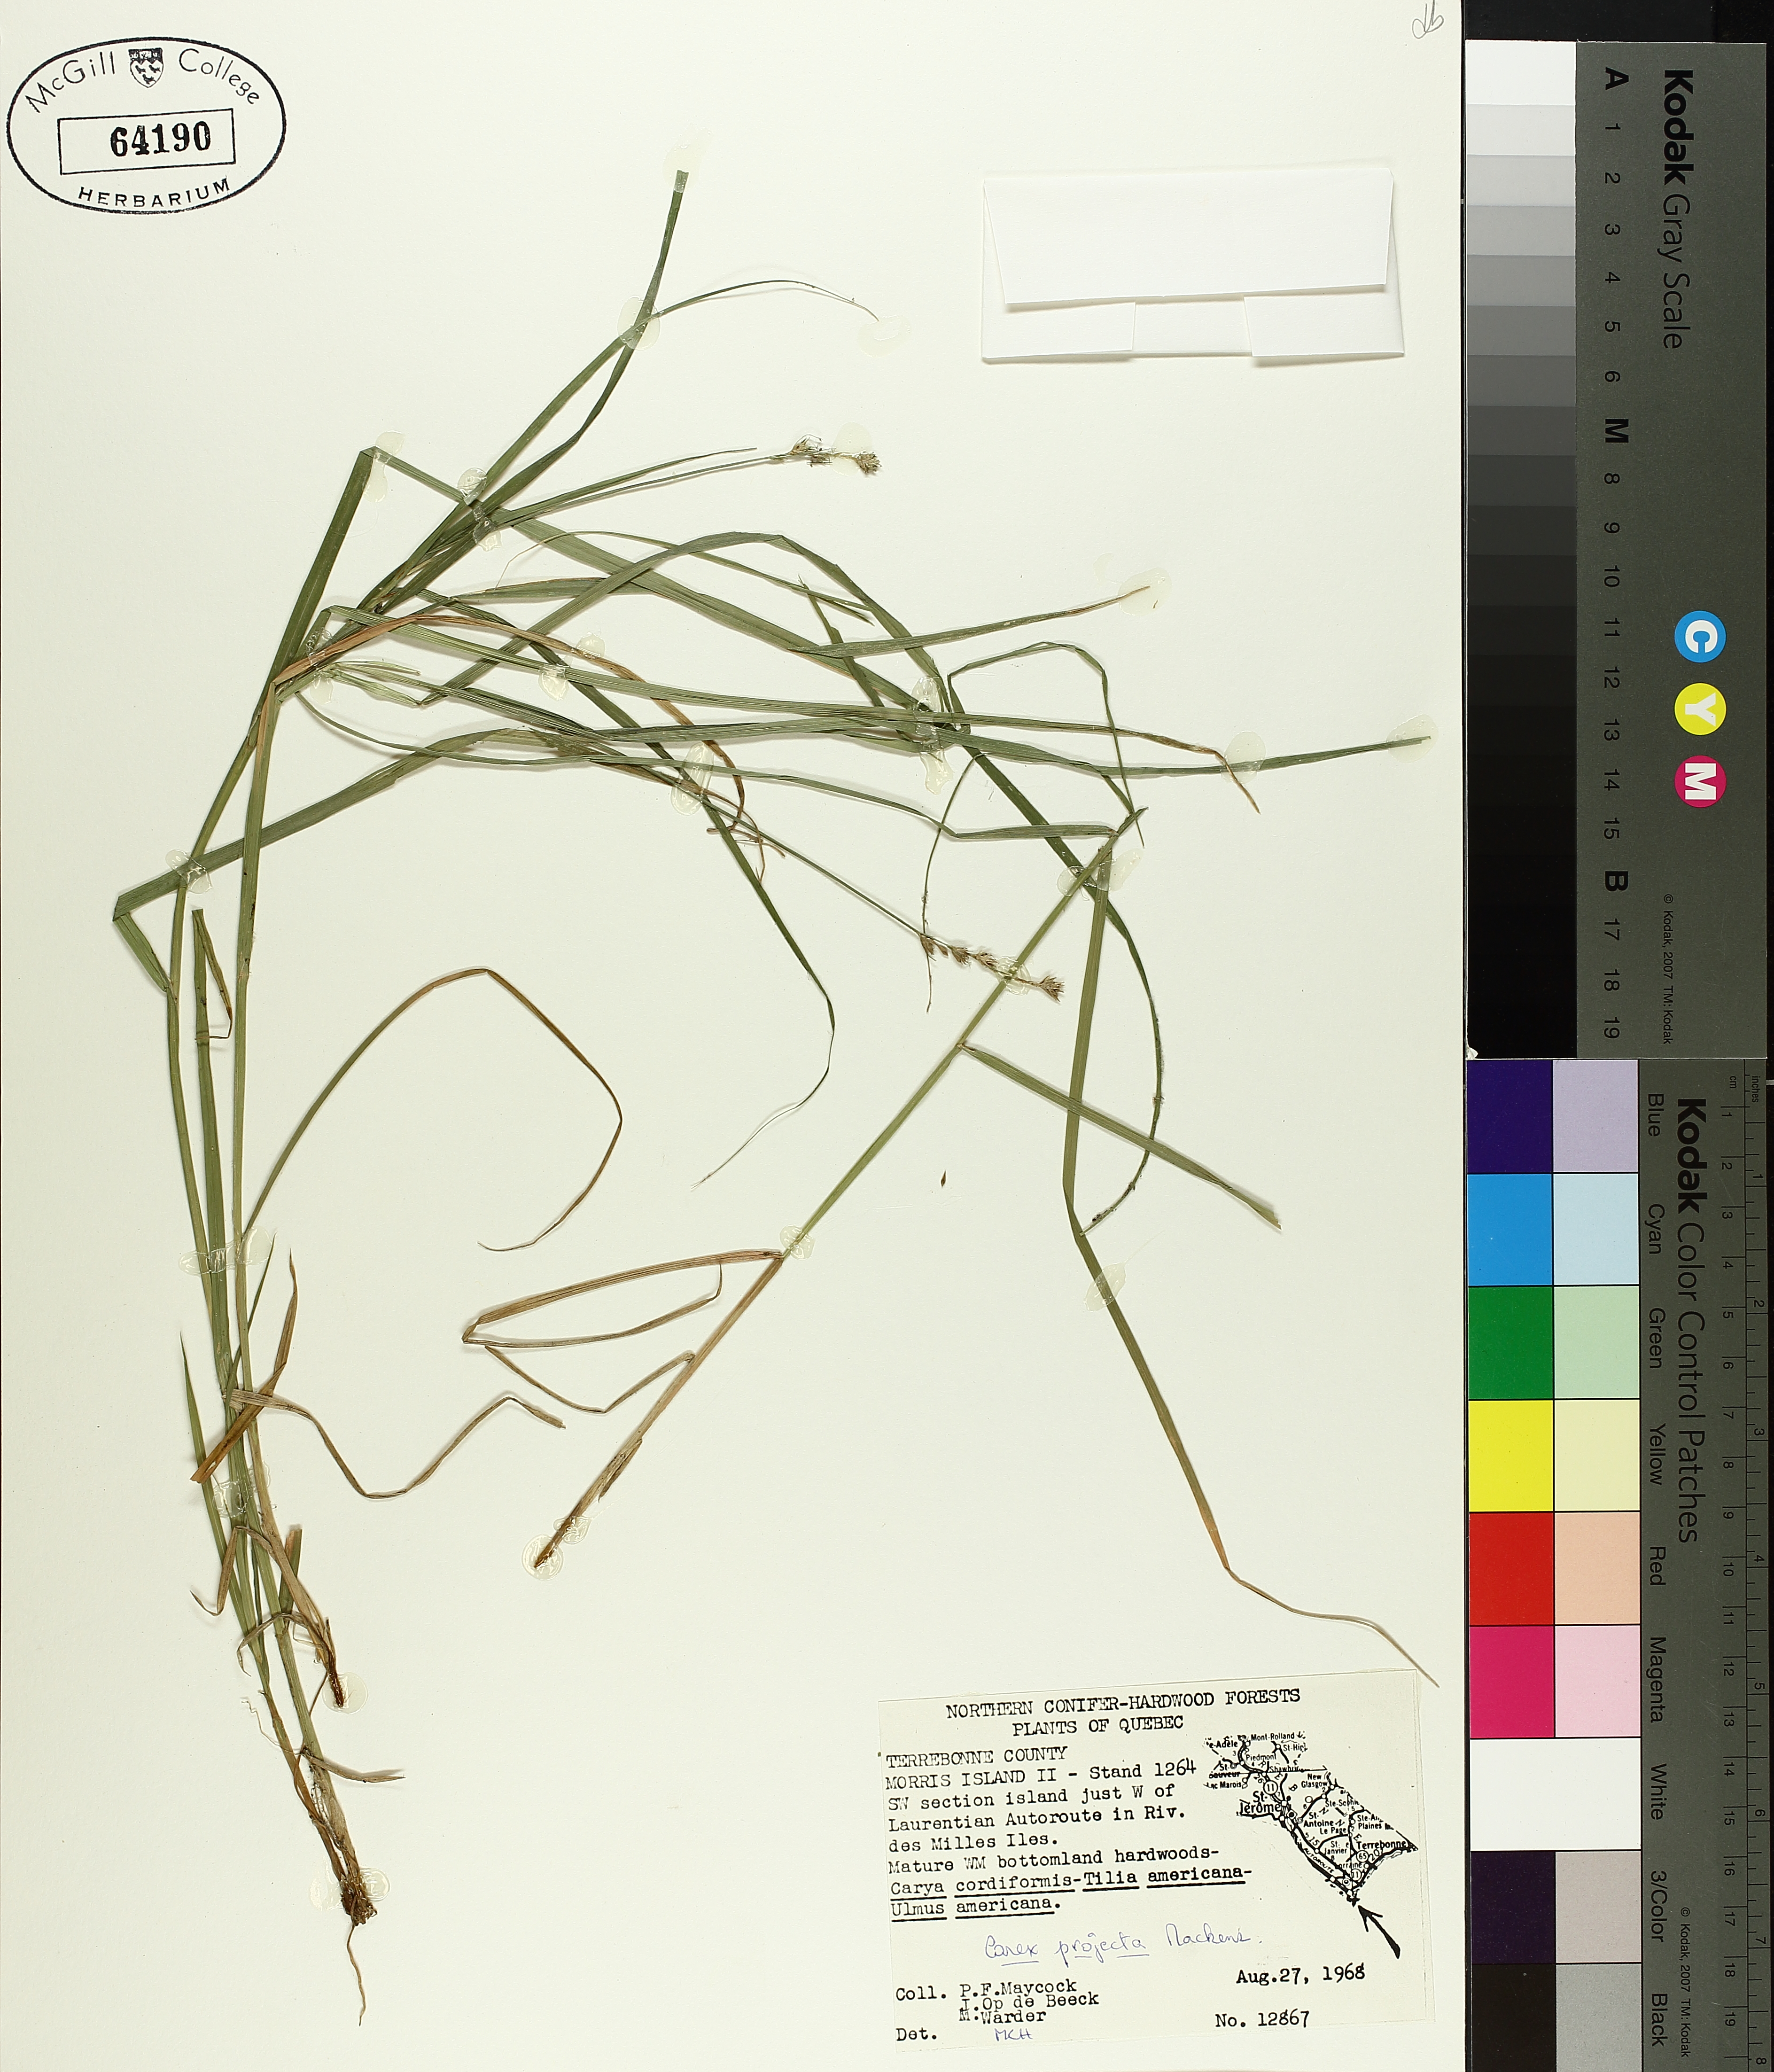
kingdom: Plantae
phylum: Tracheophyta
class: Liliopsida
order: Poales
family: Cyperaceae
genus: Carex
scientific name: Carex projecta
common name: Loose-headed oval sedge
